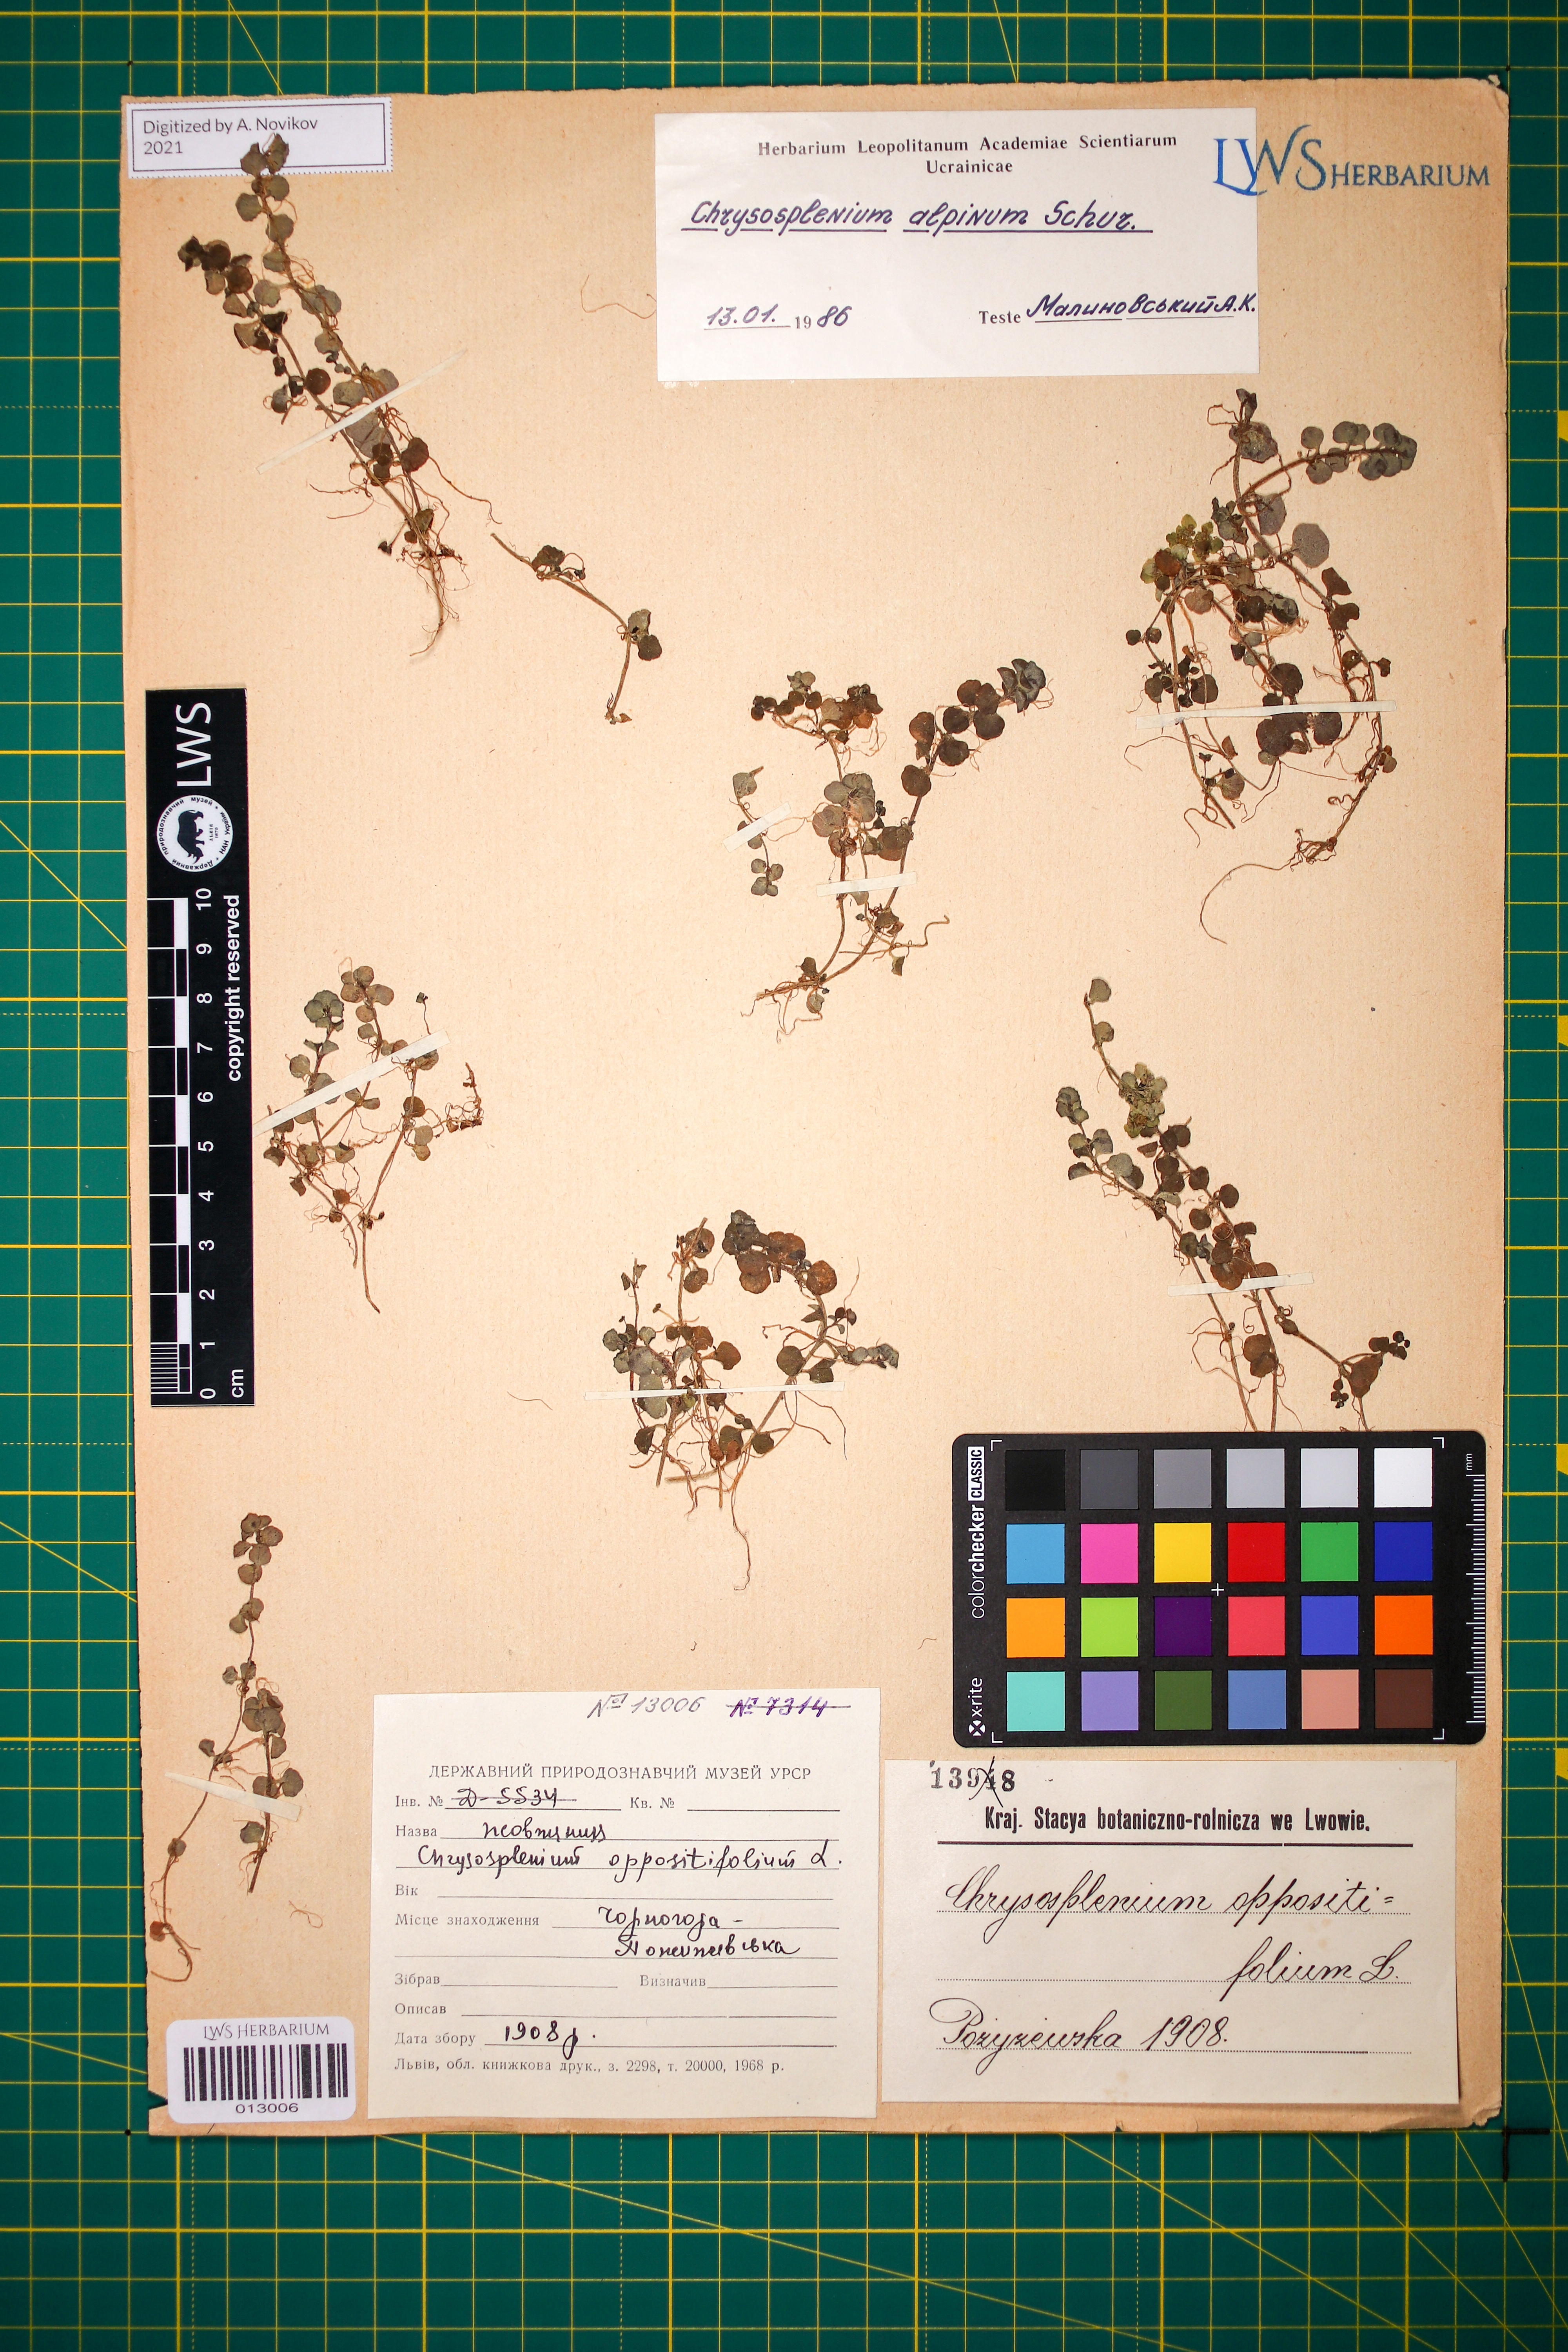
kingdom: Plantae
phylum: Tracheophyta
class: Magnoliopsida
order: Saxifragales
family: Saxifragaceae
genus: Chrysosplenium
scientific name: Chrysosplenium alpinum
